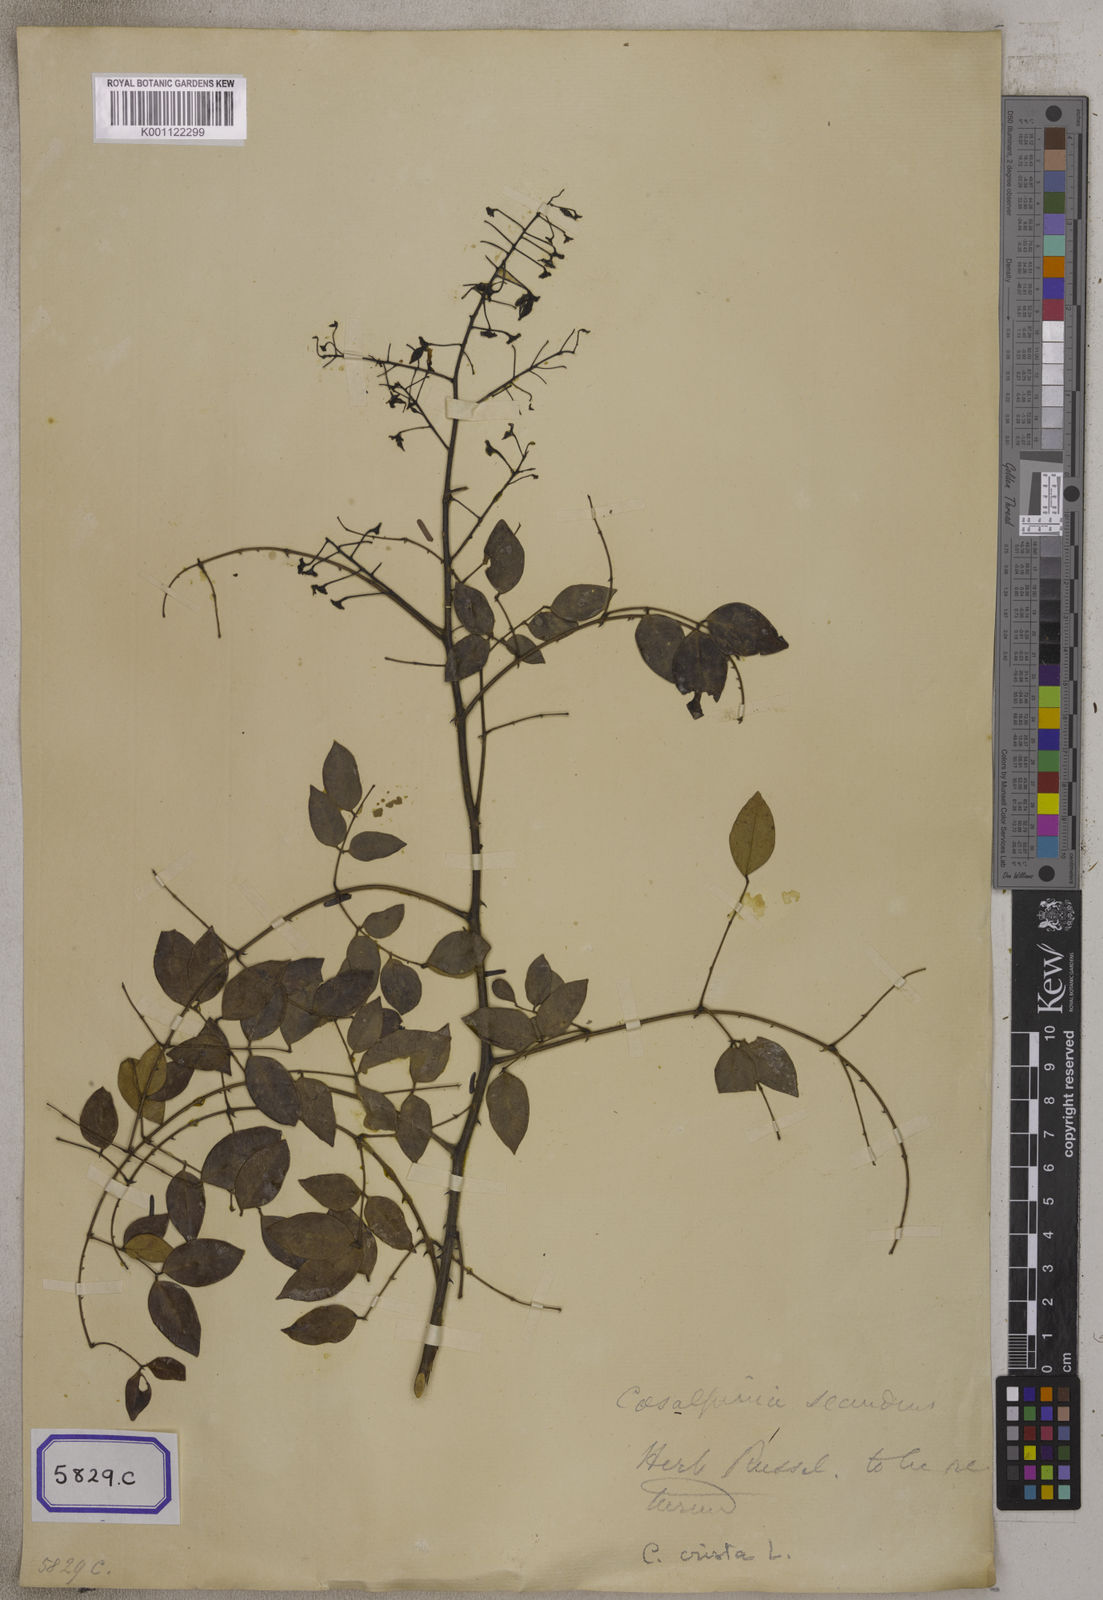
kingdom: Plantae
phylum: Tracheophyta
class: Magnoliopsida
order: Fabales
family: Fabaceae
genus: Caesalpinia
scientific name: Caesalpinia Ticanto crista
